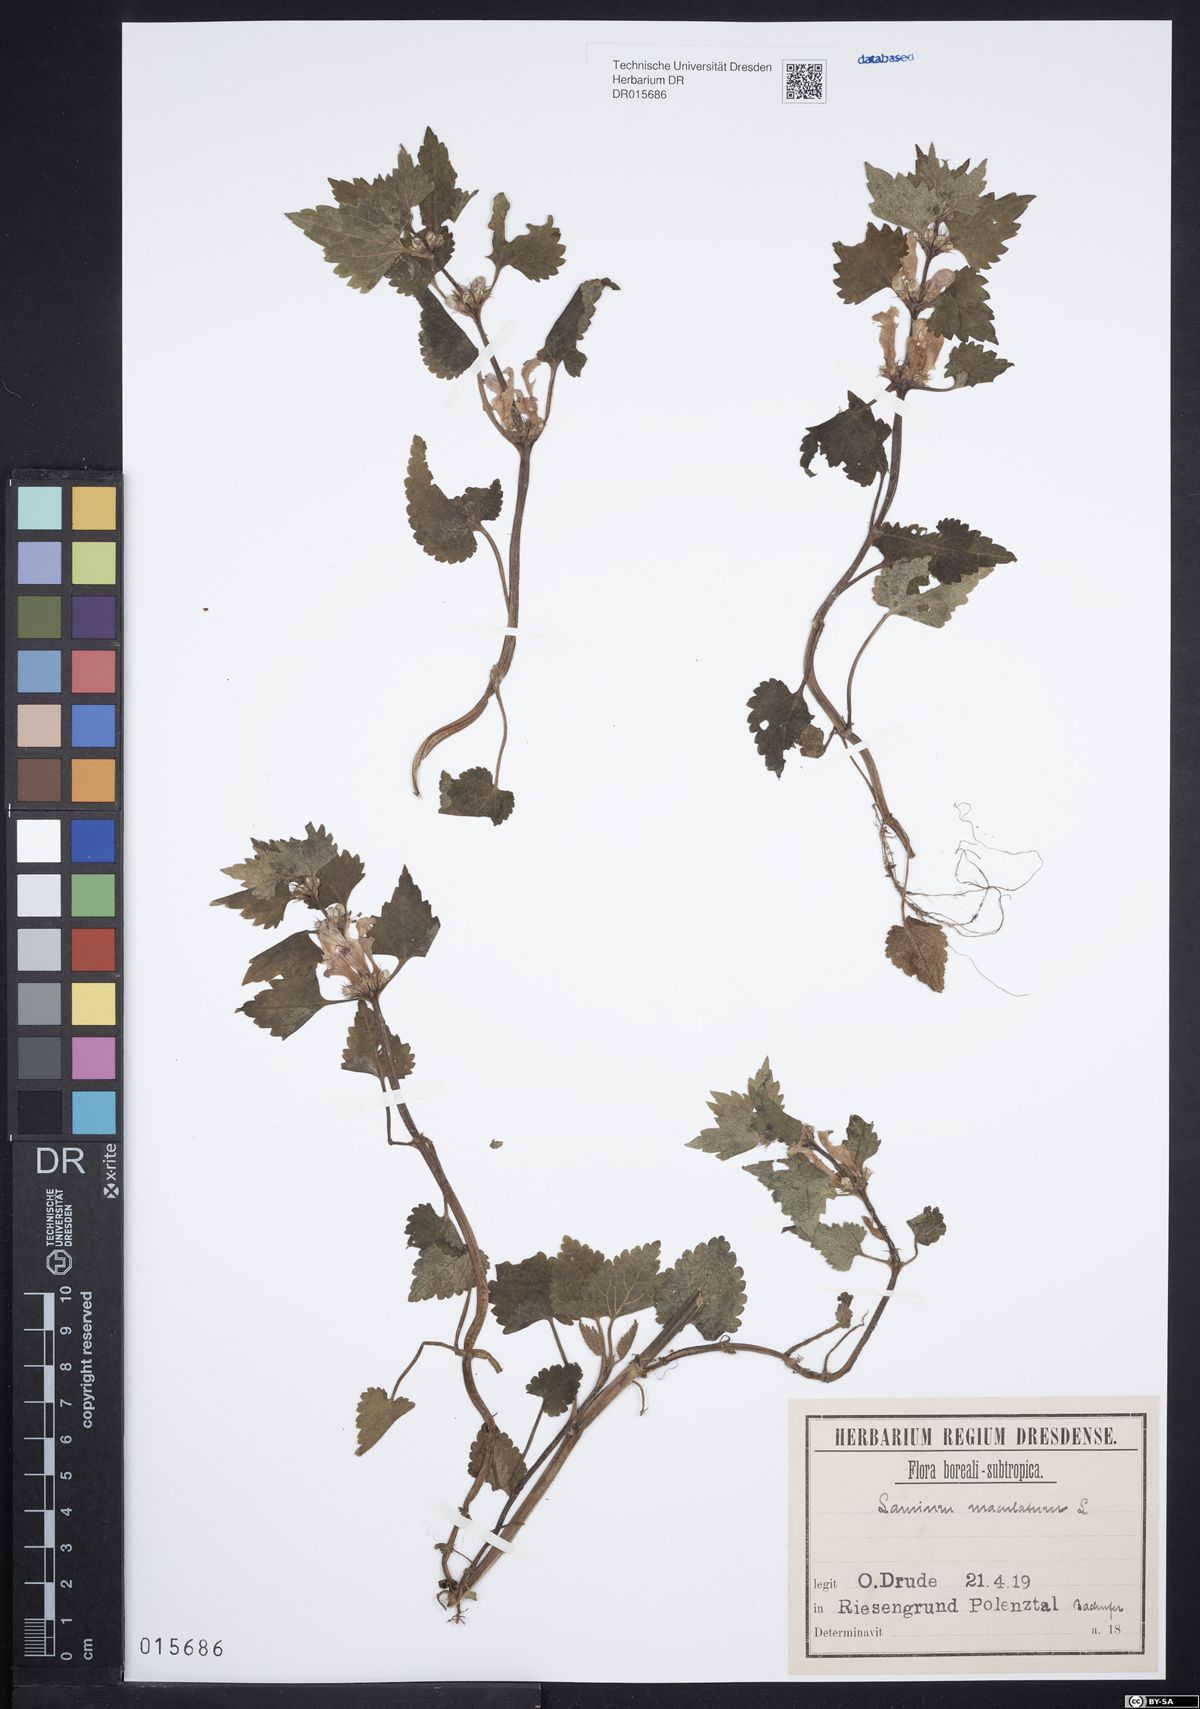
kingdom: Plantae
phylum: Tracheophyta
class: Magnoliopsida
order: Lamiales
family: Lamiaceae
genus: Lamium
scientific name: Lamium maculatum
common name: Spotted dead-nettle
